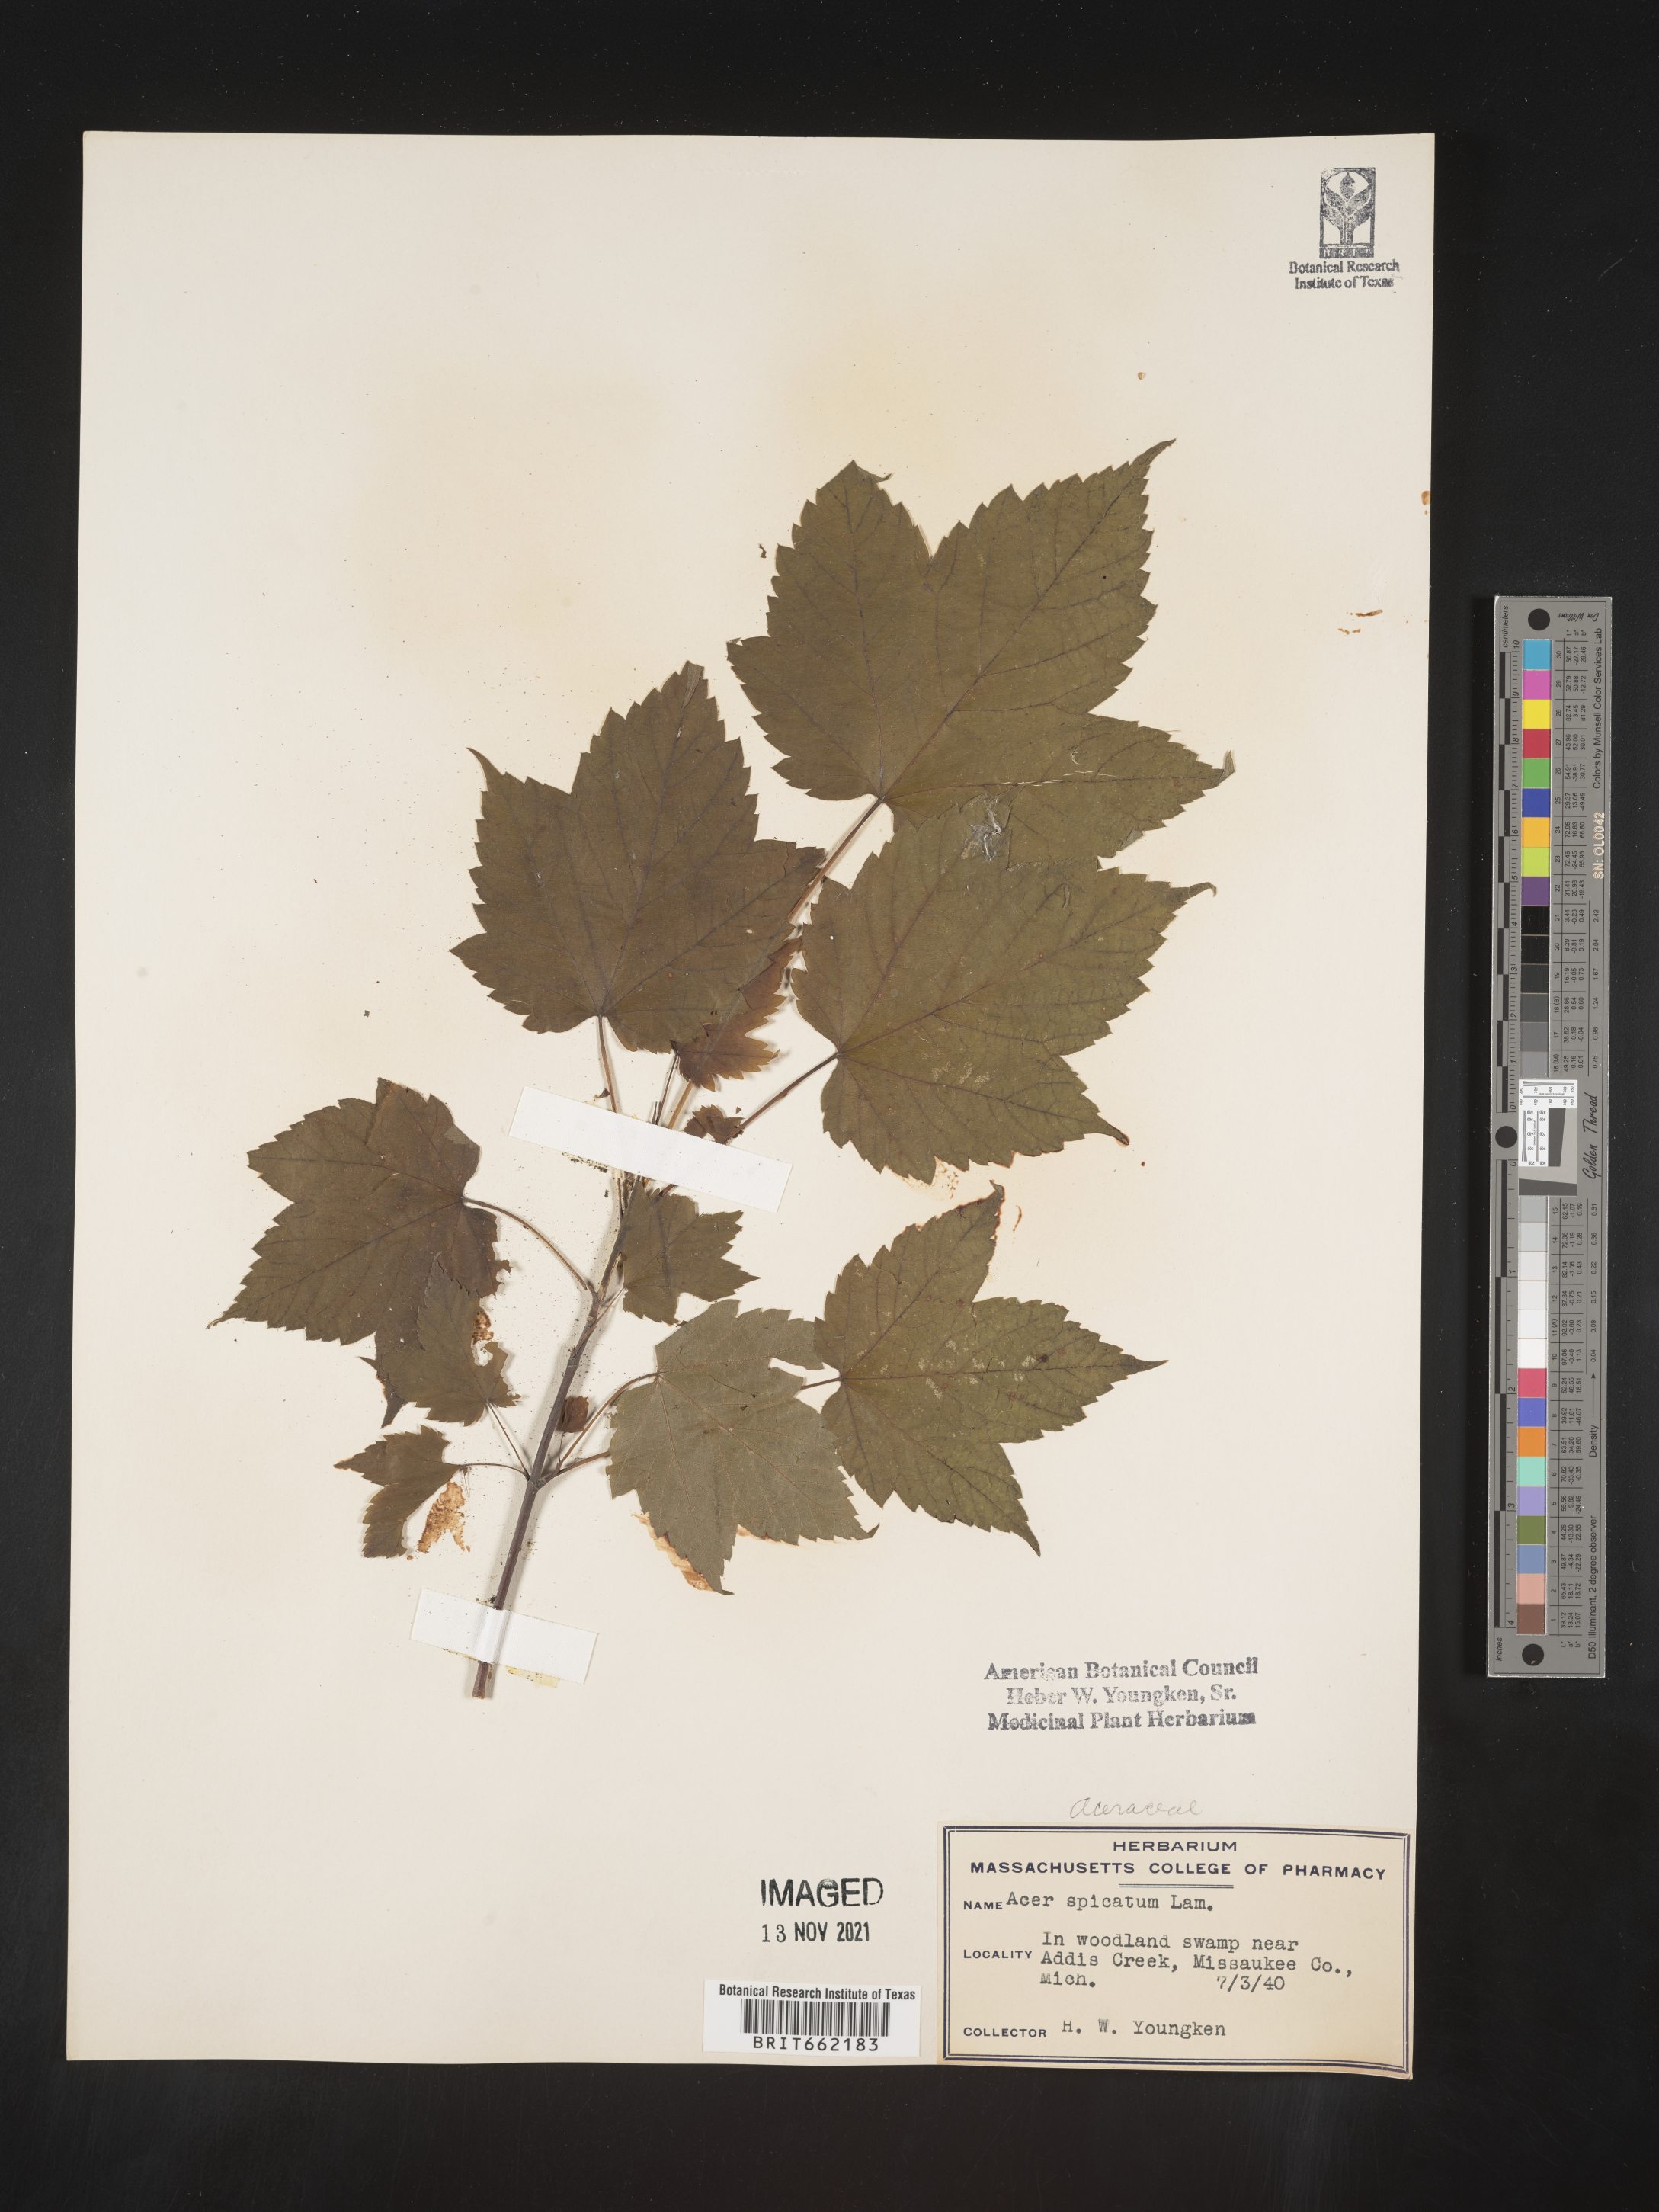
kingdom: Plantae
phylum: Tracheophyta
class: Magnoliopsida
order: Sapindales
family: Sapindaceae
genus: Acer
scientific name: Acer spicatum
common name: Mountain maple
